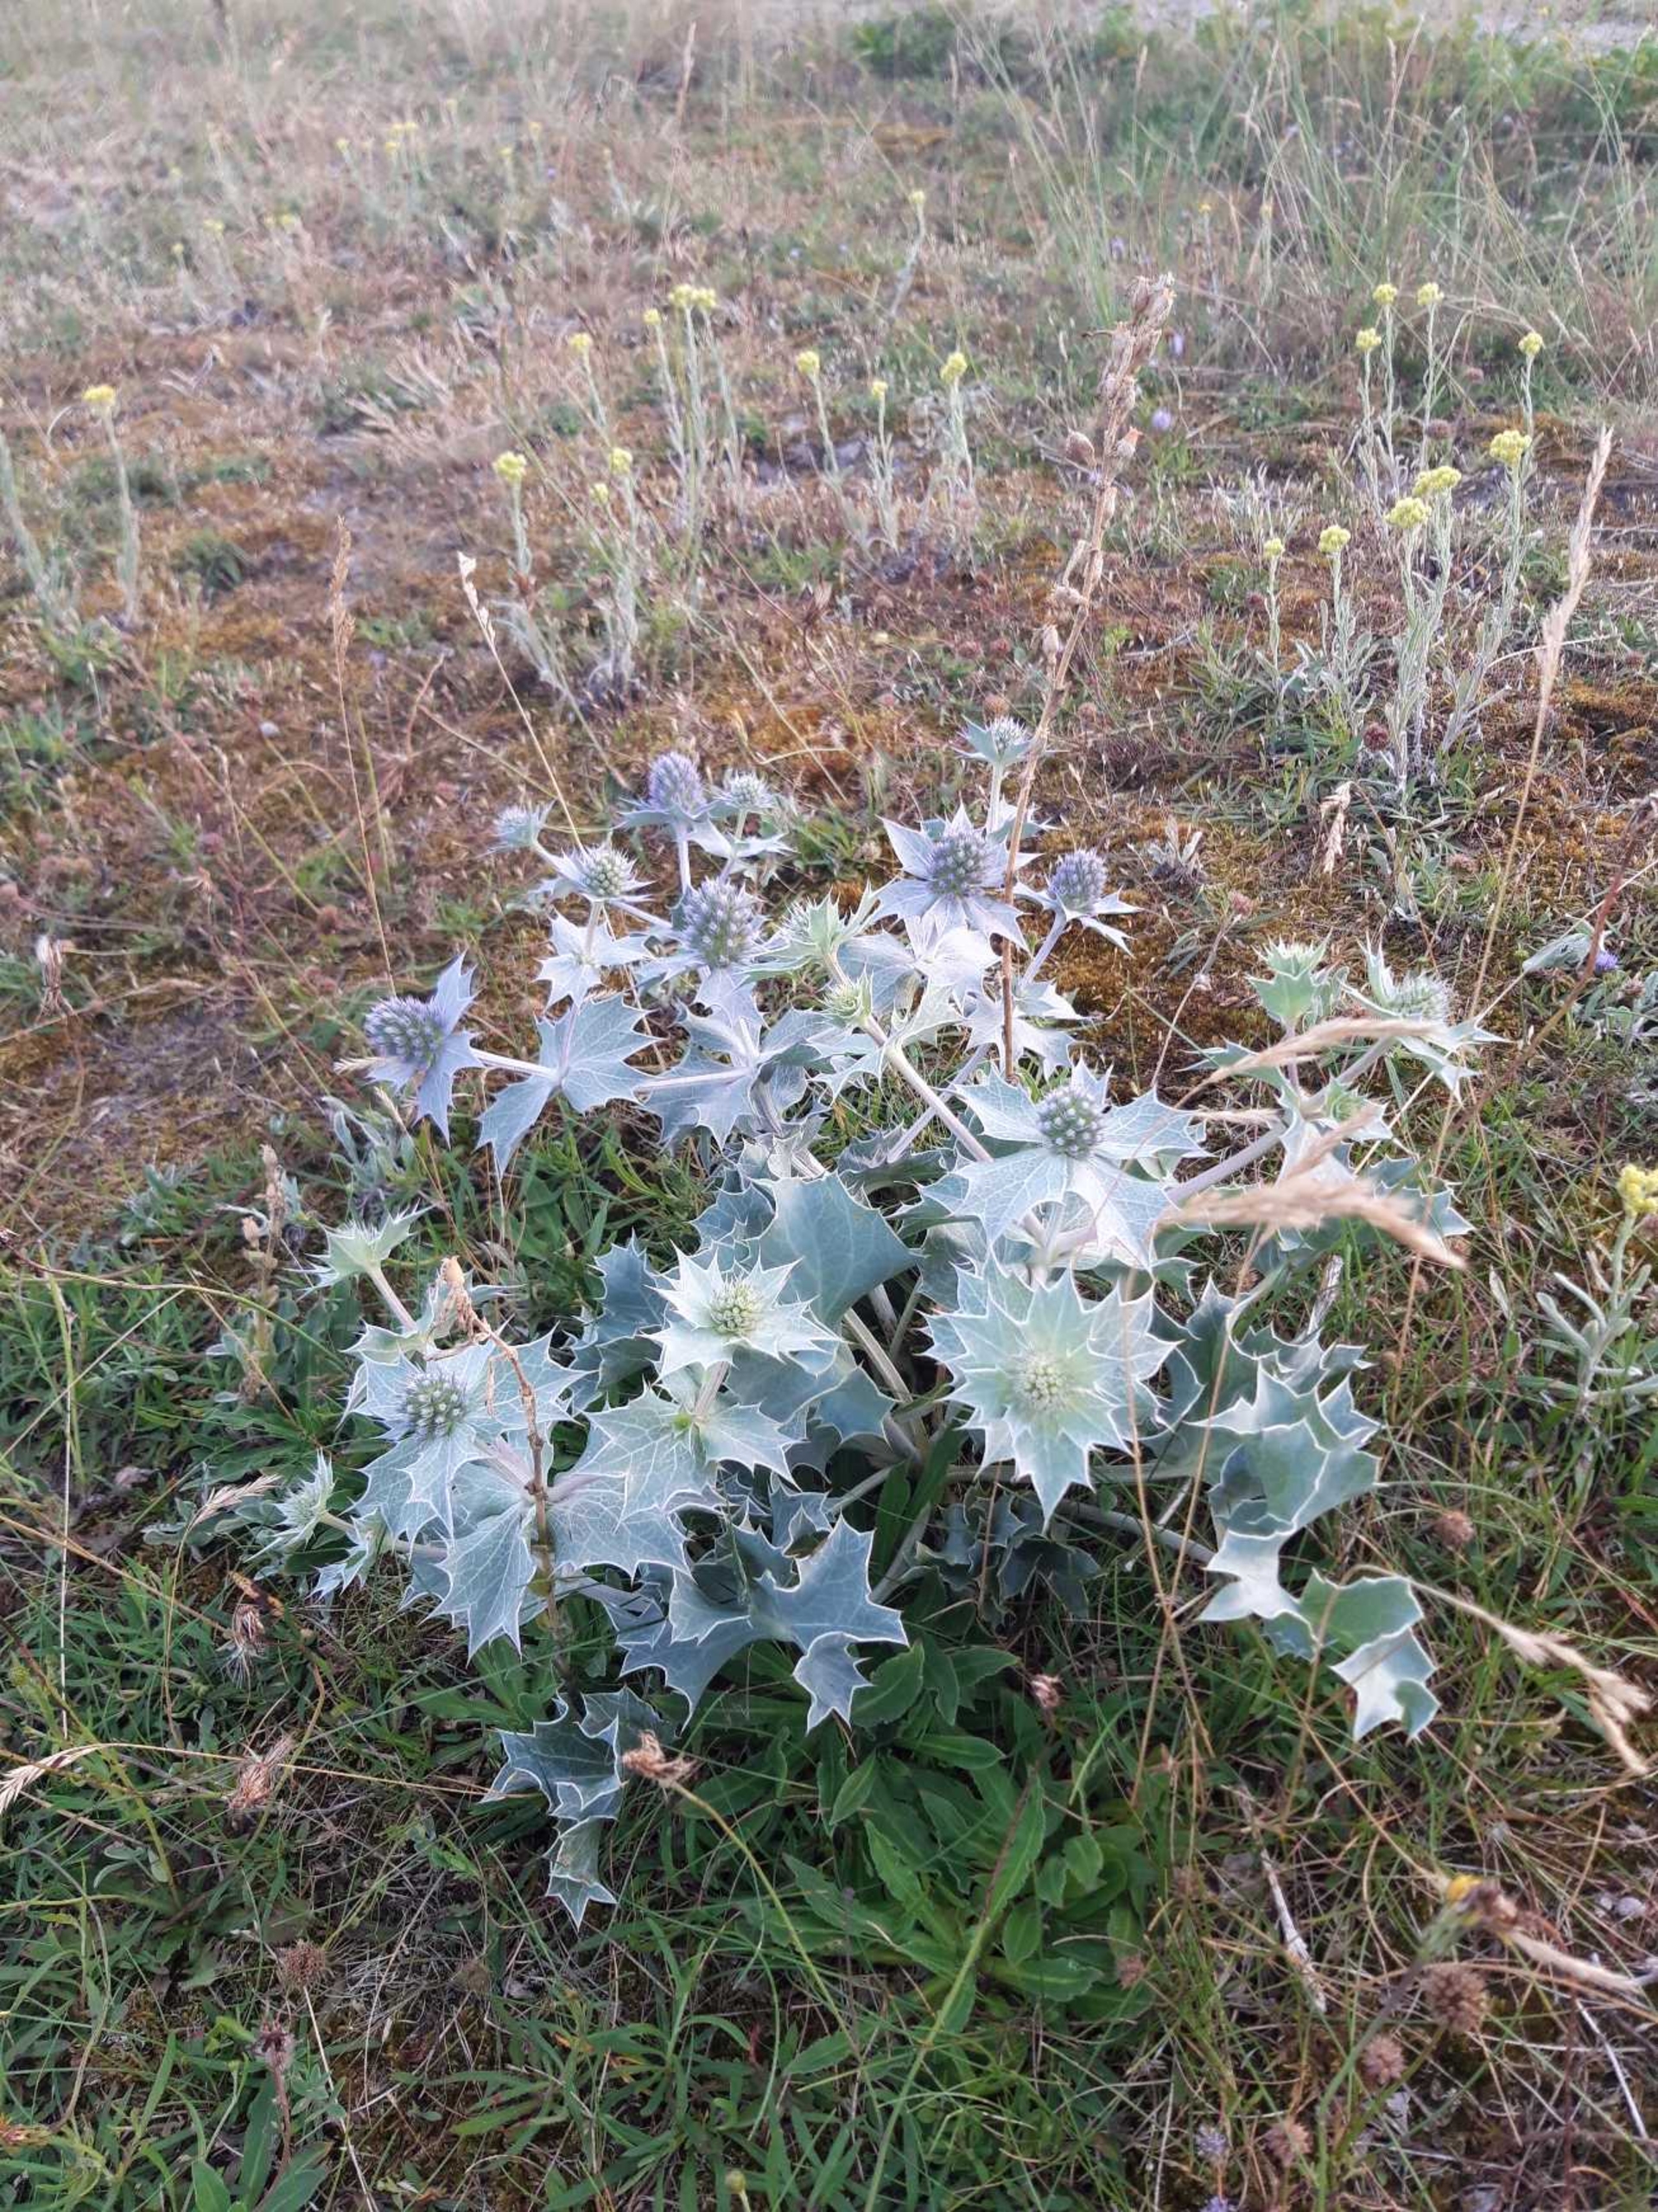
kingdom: Plantae
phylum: Tracheophyta
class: Magnoliopsida
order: Apiales
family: Apiaceae
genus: Eryngium
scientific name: Eryngium maritimum
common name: Strand-mandstro
